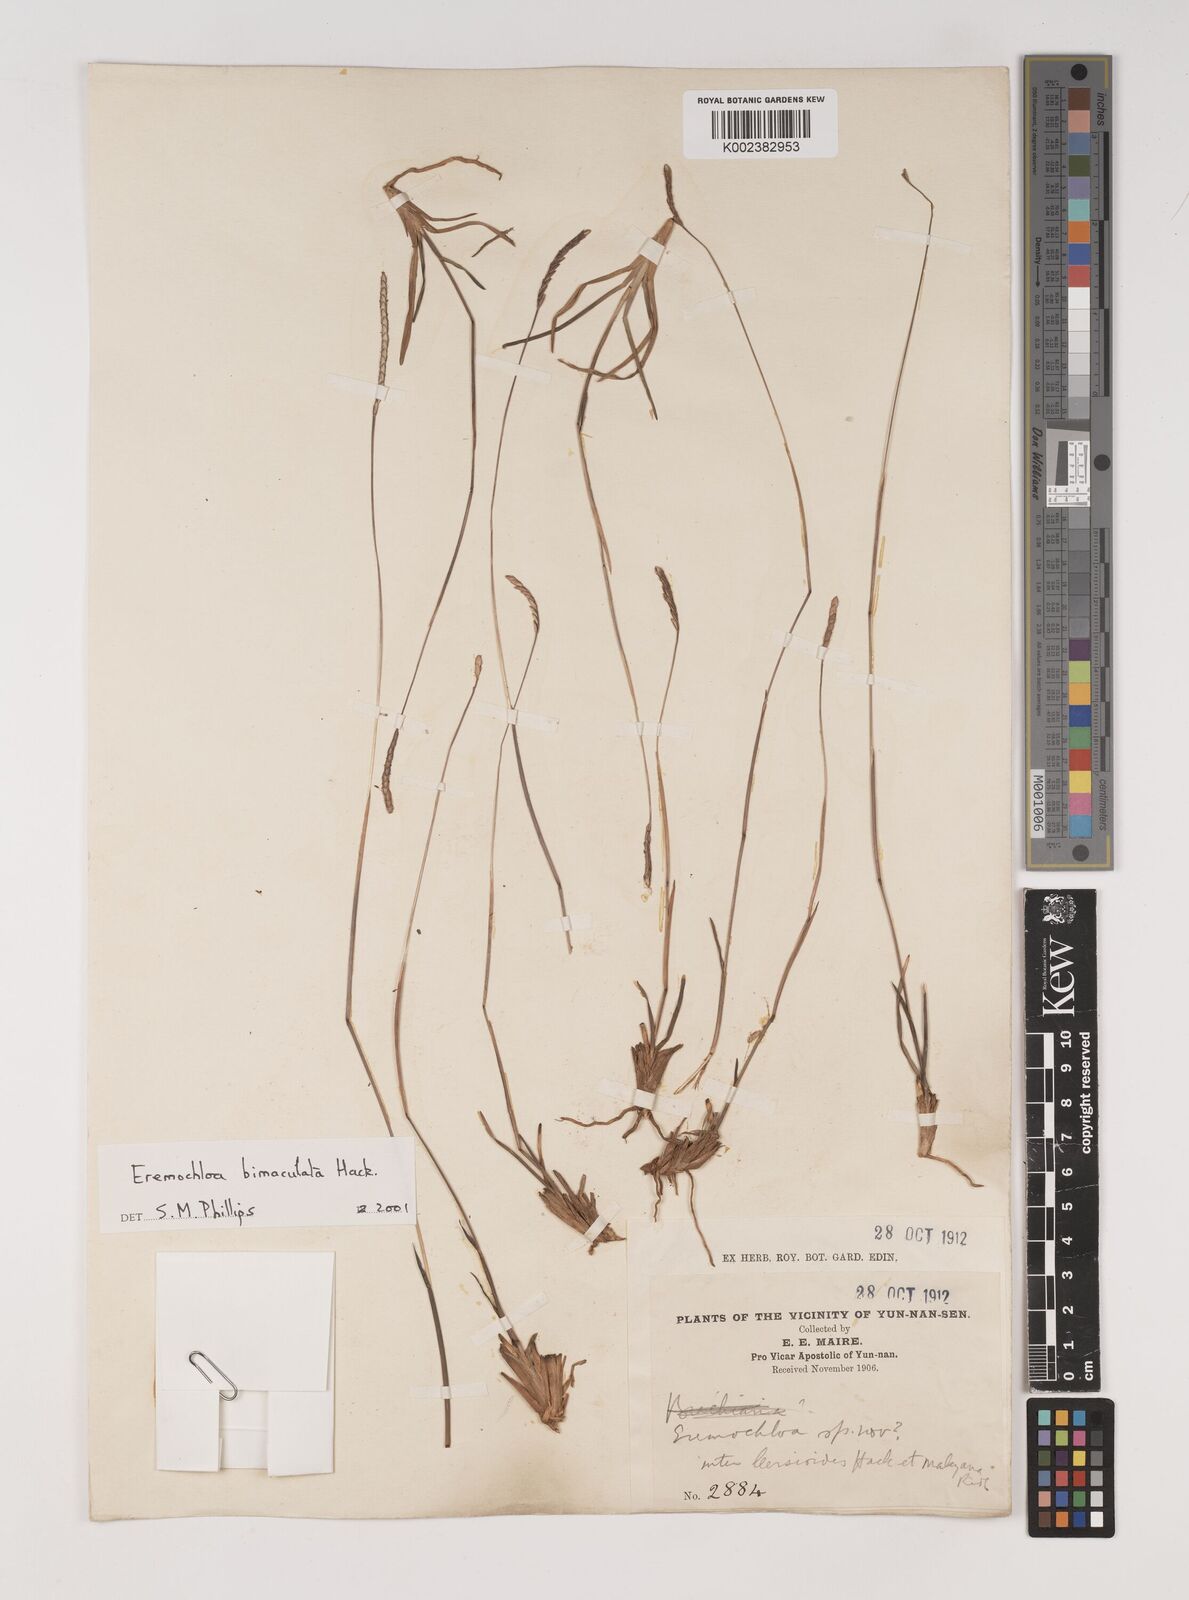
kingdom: Plantae
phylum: Tracheophyta
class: Liliopsida
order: Poales
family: Poaceae
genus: Eremochloa
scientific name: Eremochloa bimaculata
